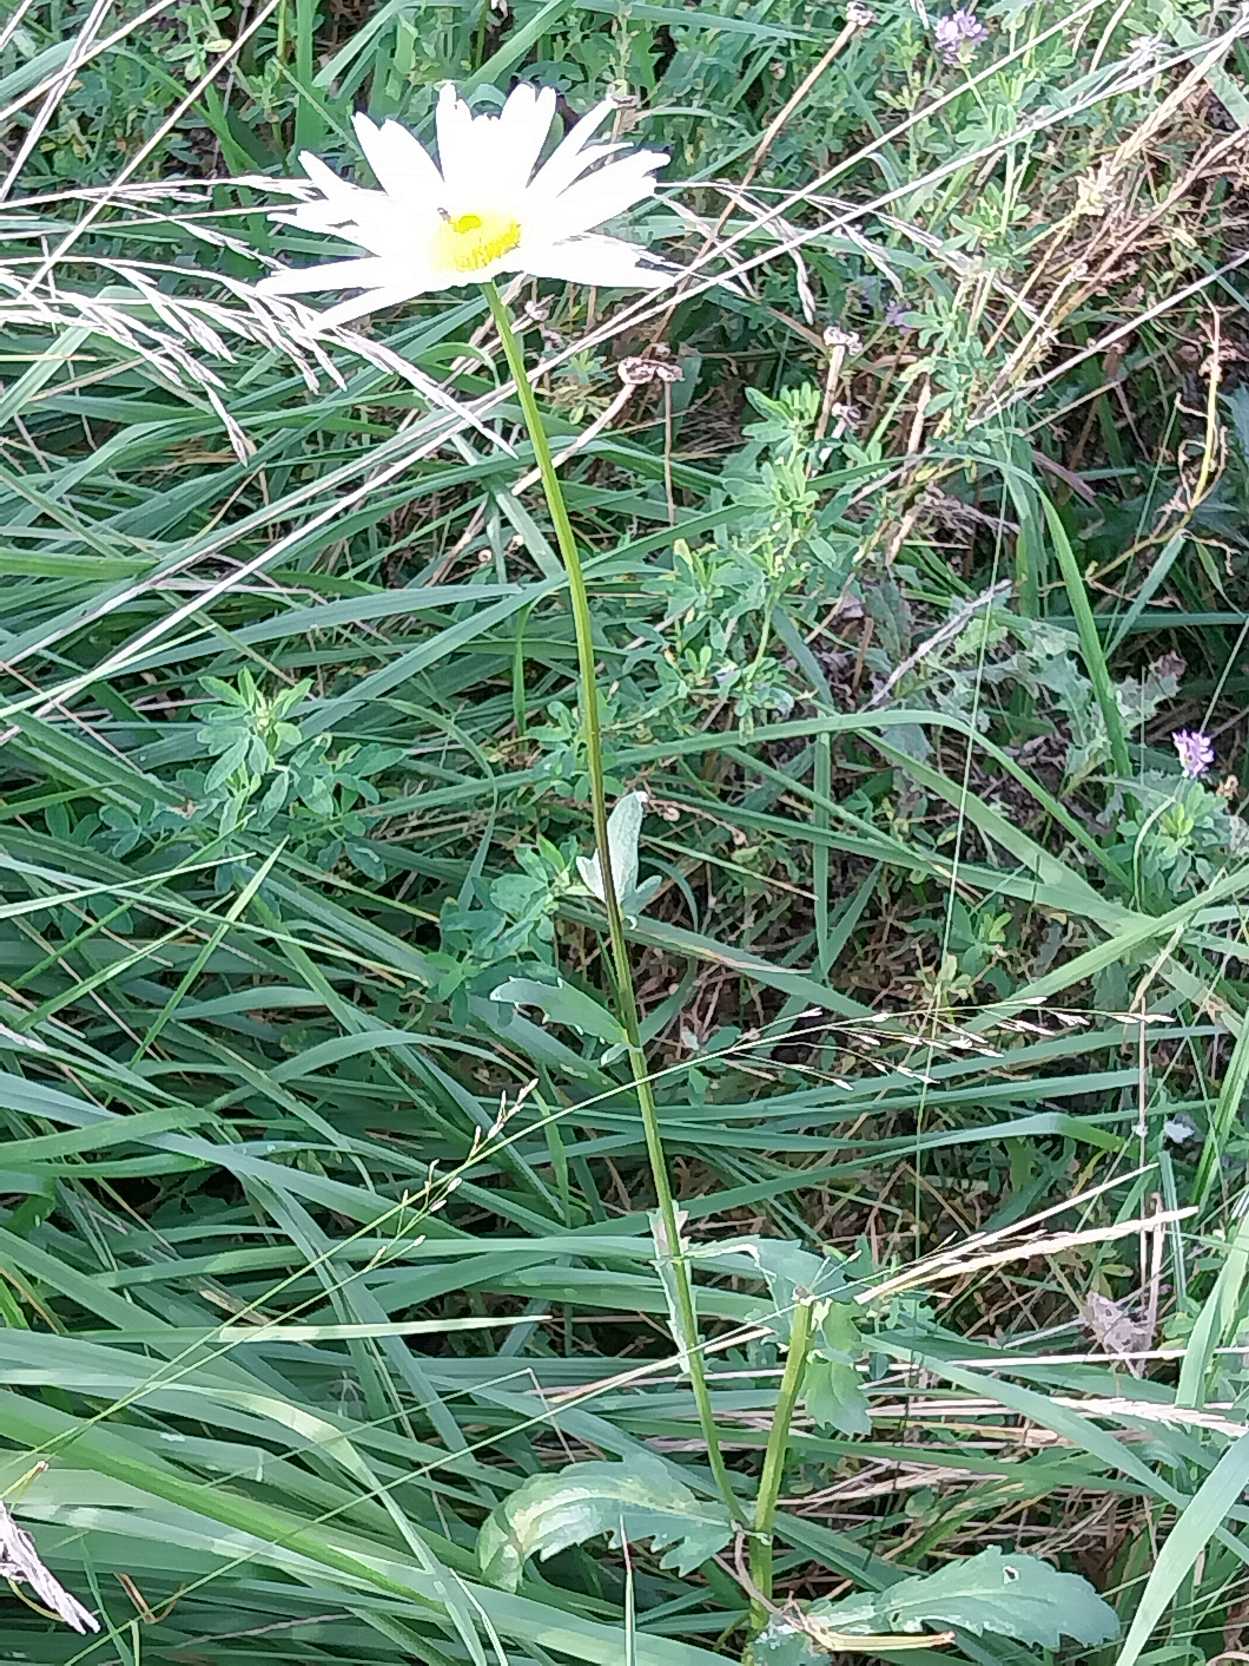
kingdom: Plantae
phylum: Tracheophyta
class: Magnoliopsida
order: Asterales
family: Asteraceae
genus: Leucanthemum
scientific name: Leucanthemum vulgare
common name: Hvid okseøje
